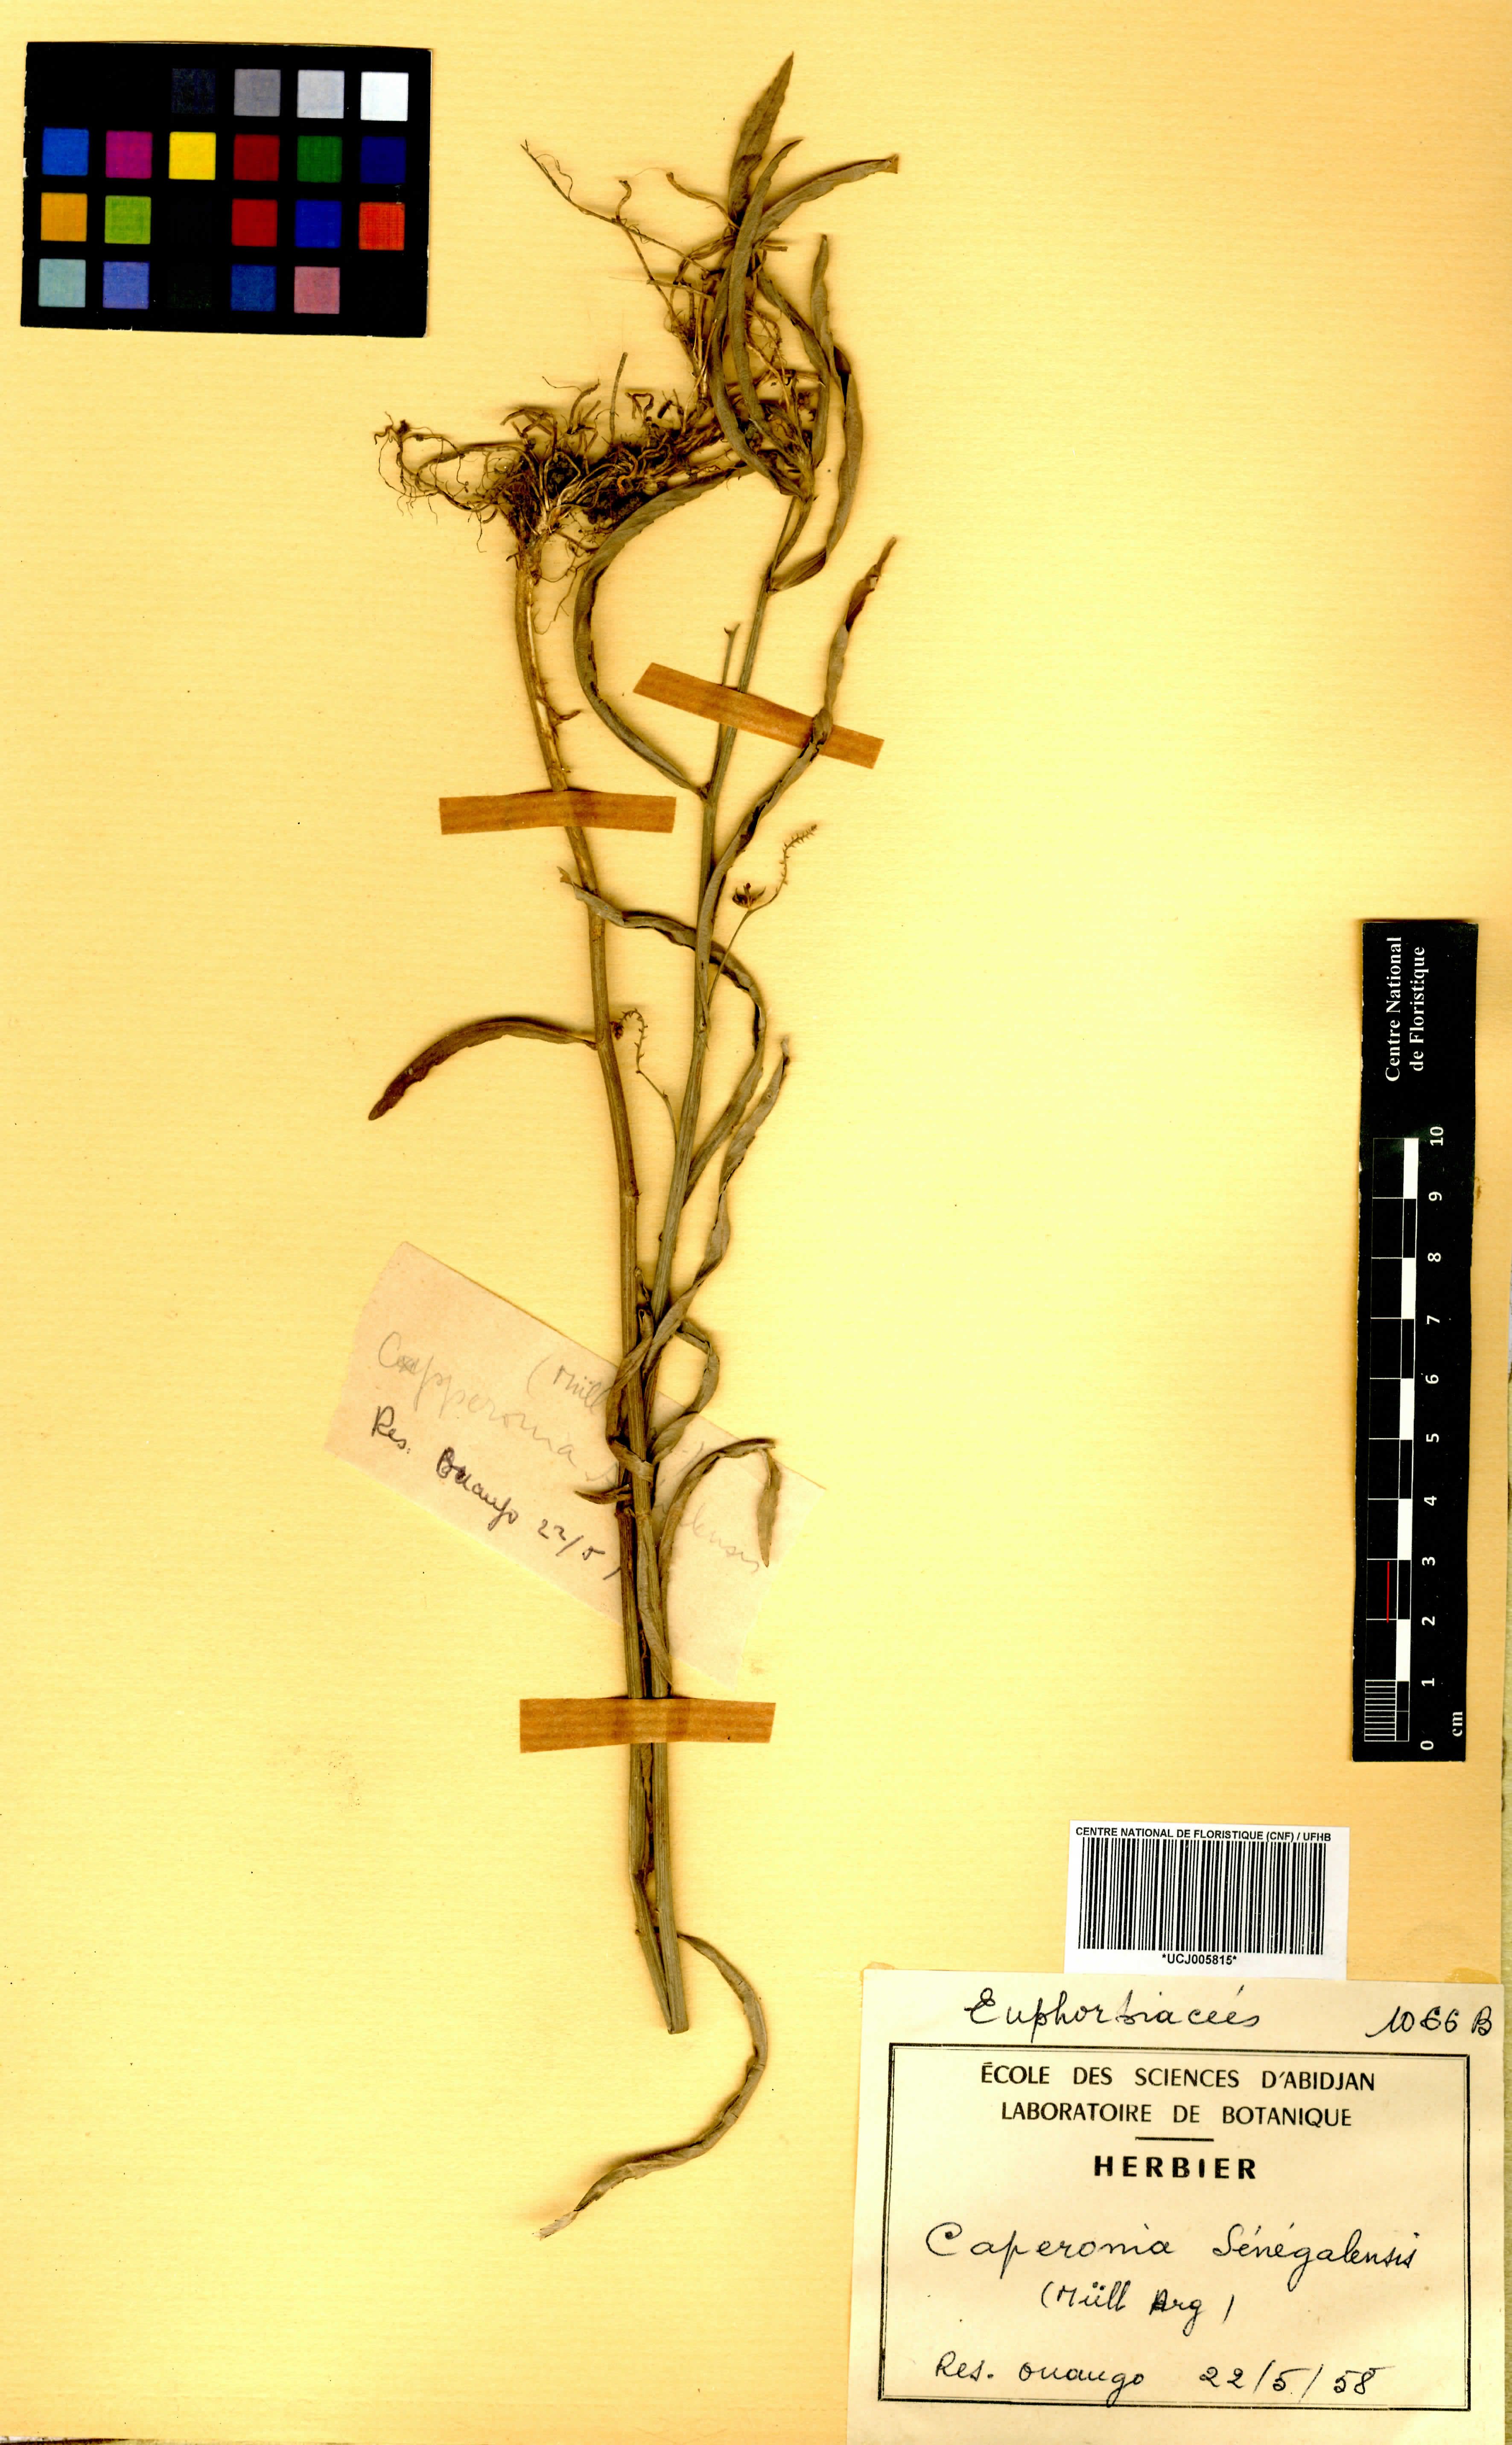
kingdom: Plantae
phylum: Tracheophyta
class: Magnoliopsida
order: Malpighiales
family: Euphorbiaceae
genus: Caperonia
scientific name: Caperonia serrata
